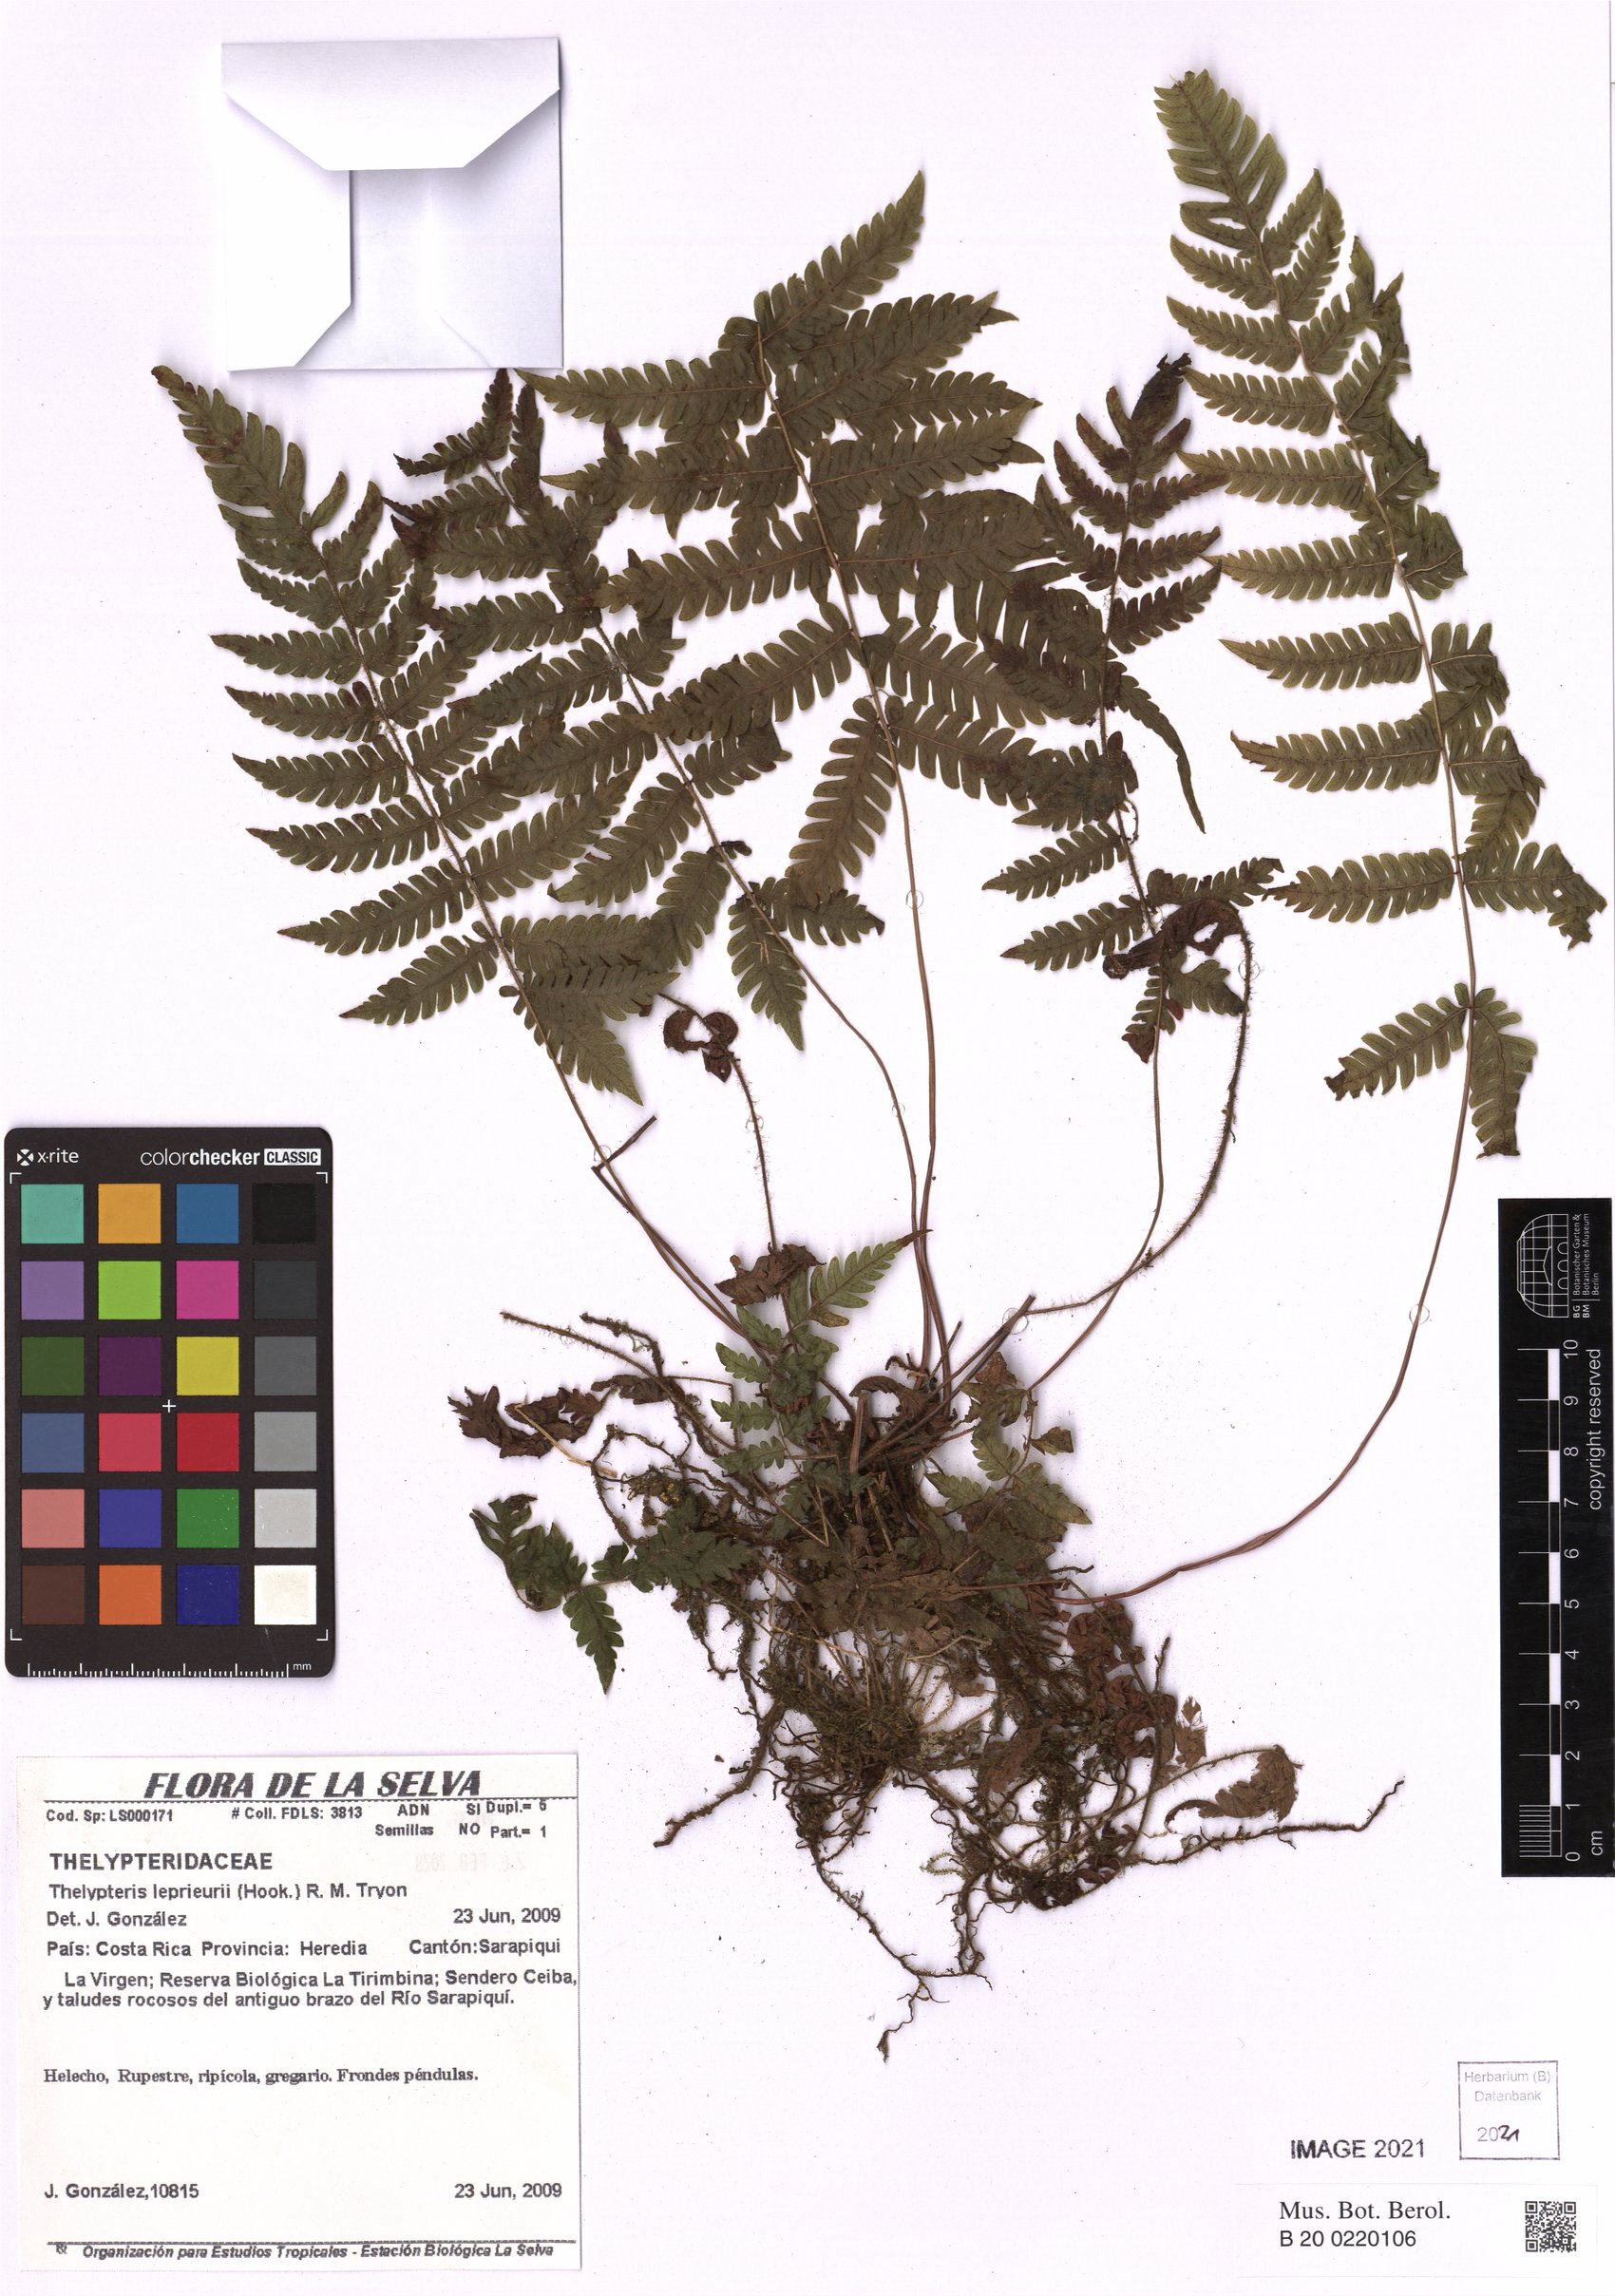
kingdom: Plantae
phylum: Tracheophyta
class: Polypodiopsida
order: Polypodiales
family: Thelypteridaceae
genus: Steiropteris
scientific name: Steiropteris leprieurii
